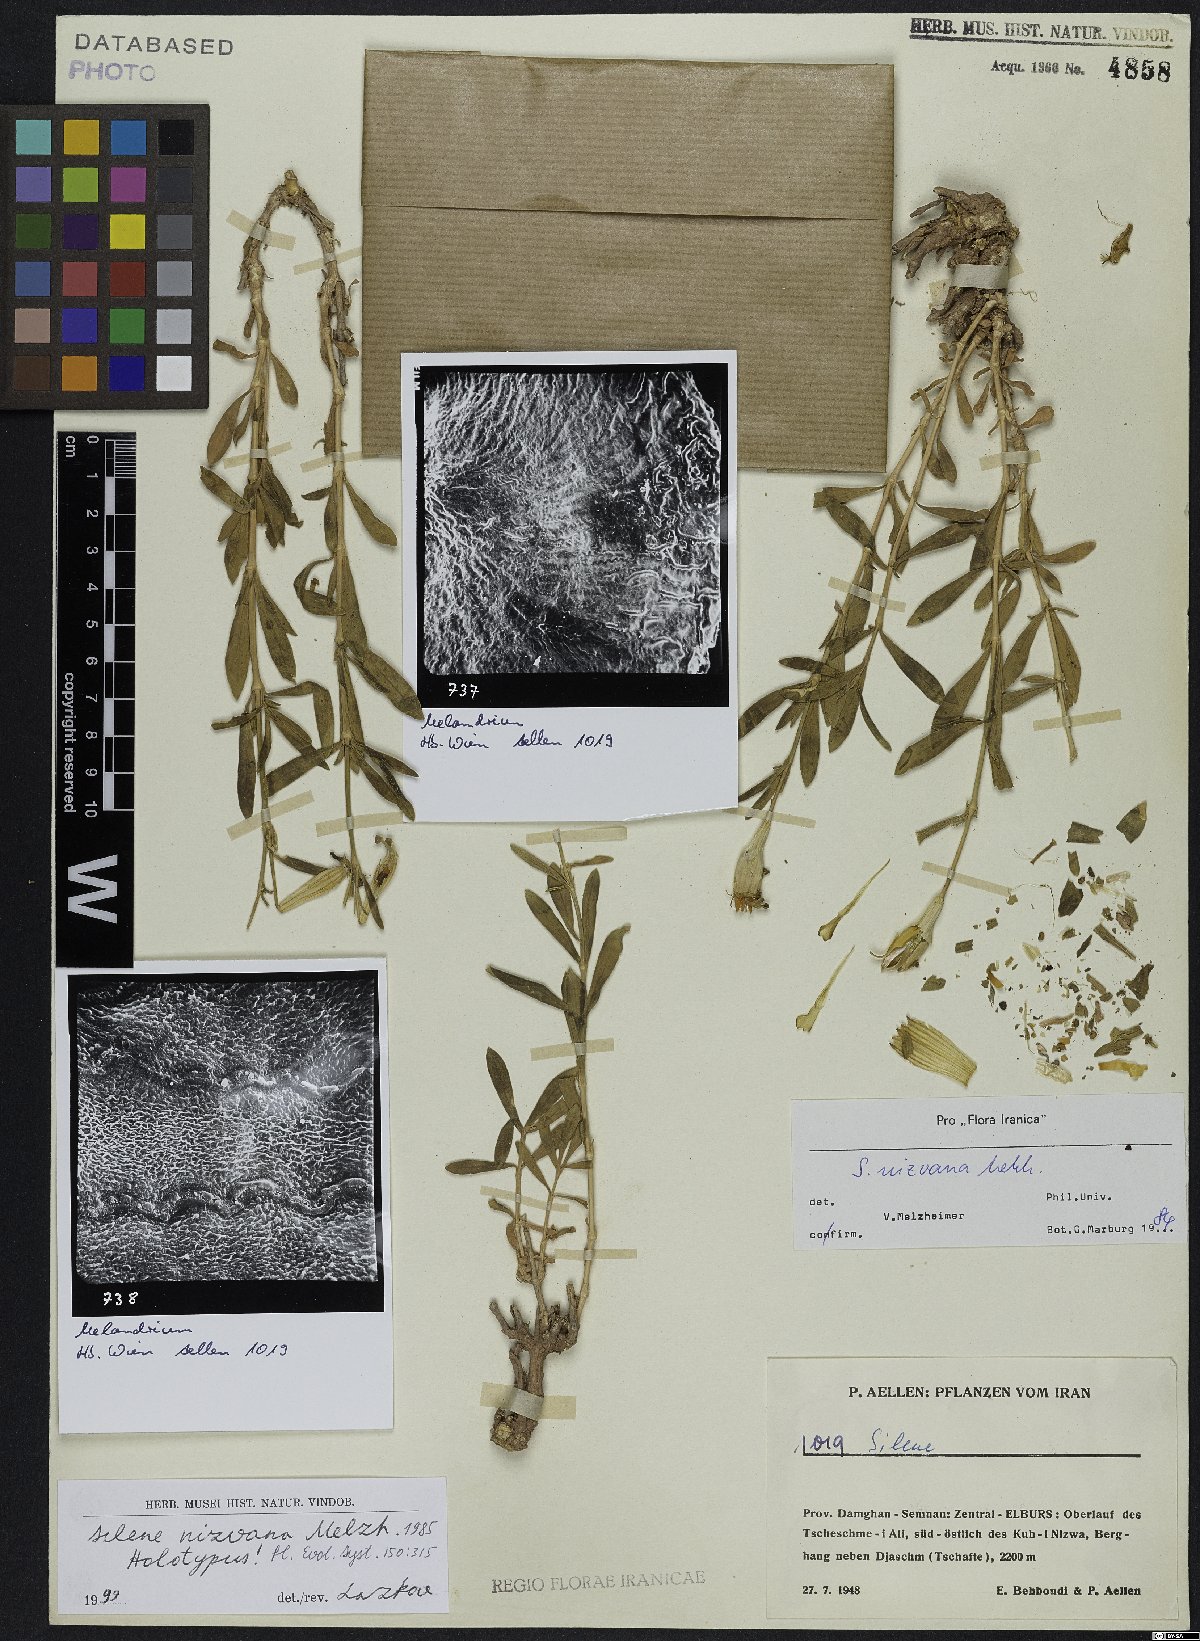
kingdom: Plantae
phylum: Tracheophyta
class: Magnoliopsida
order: Caryophyllales
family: Caryophyllaceae
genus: Silene
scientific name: Silene nizvana
